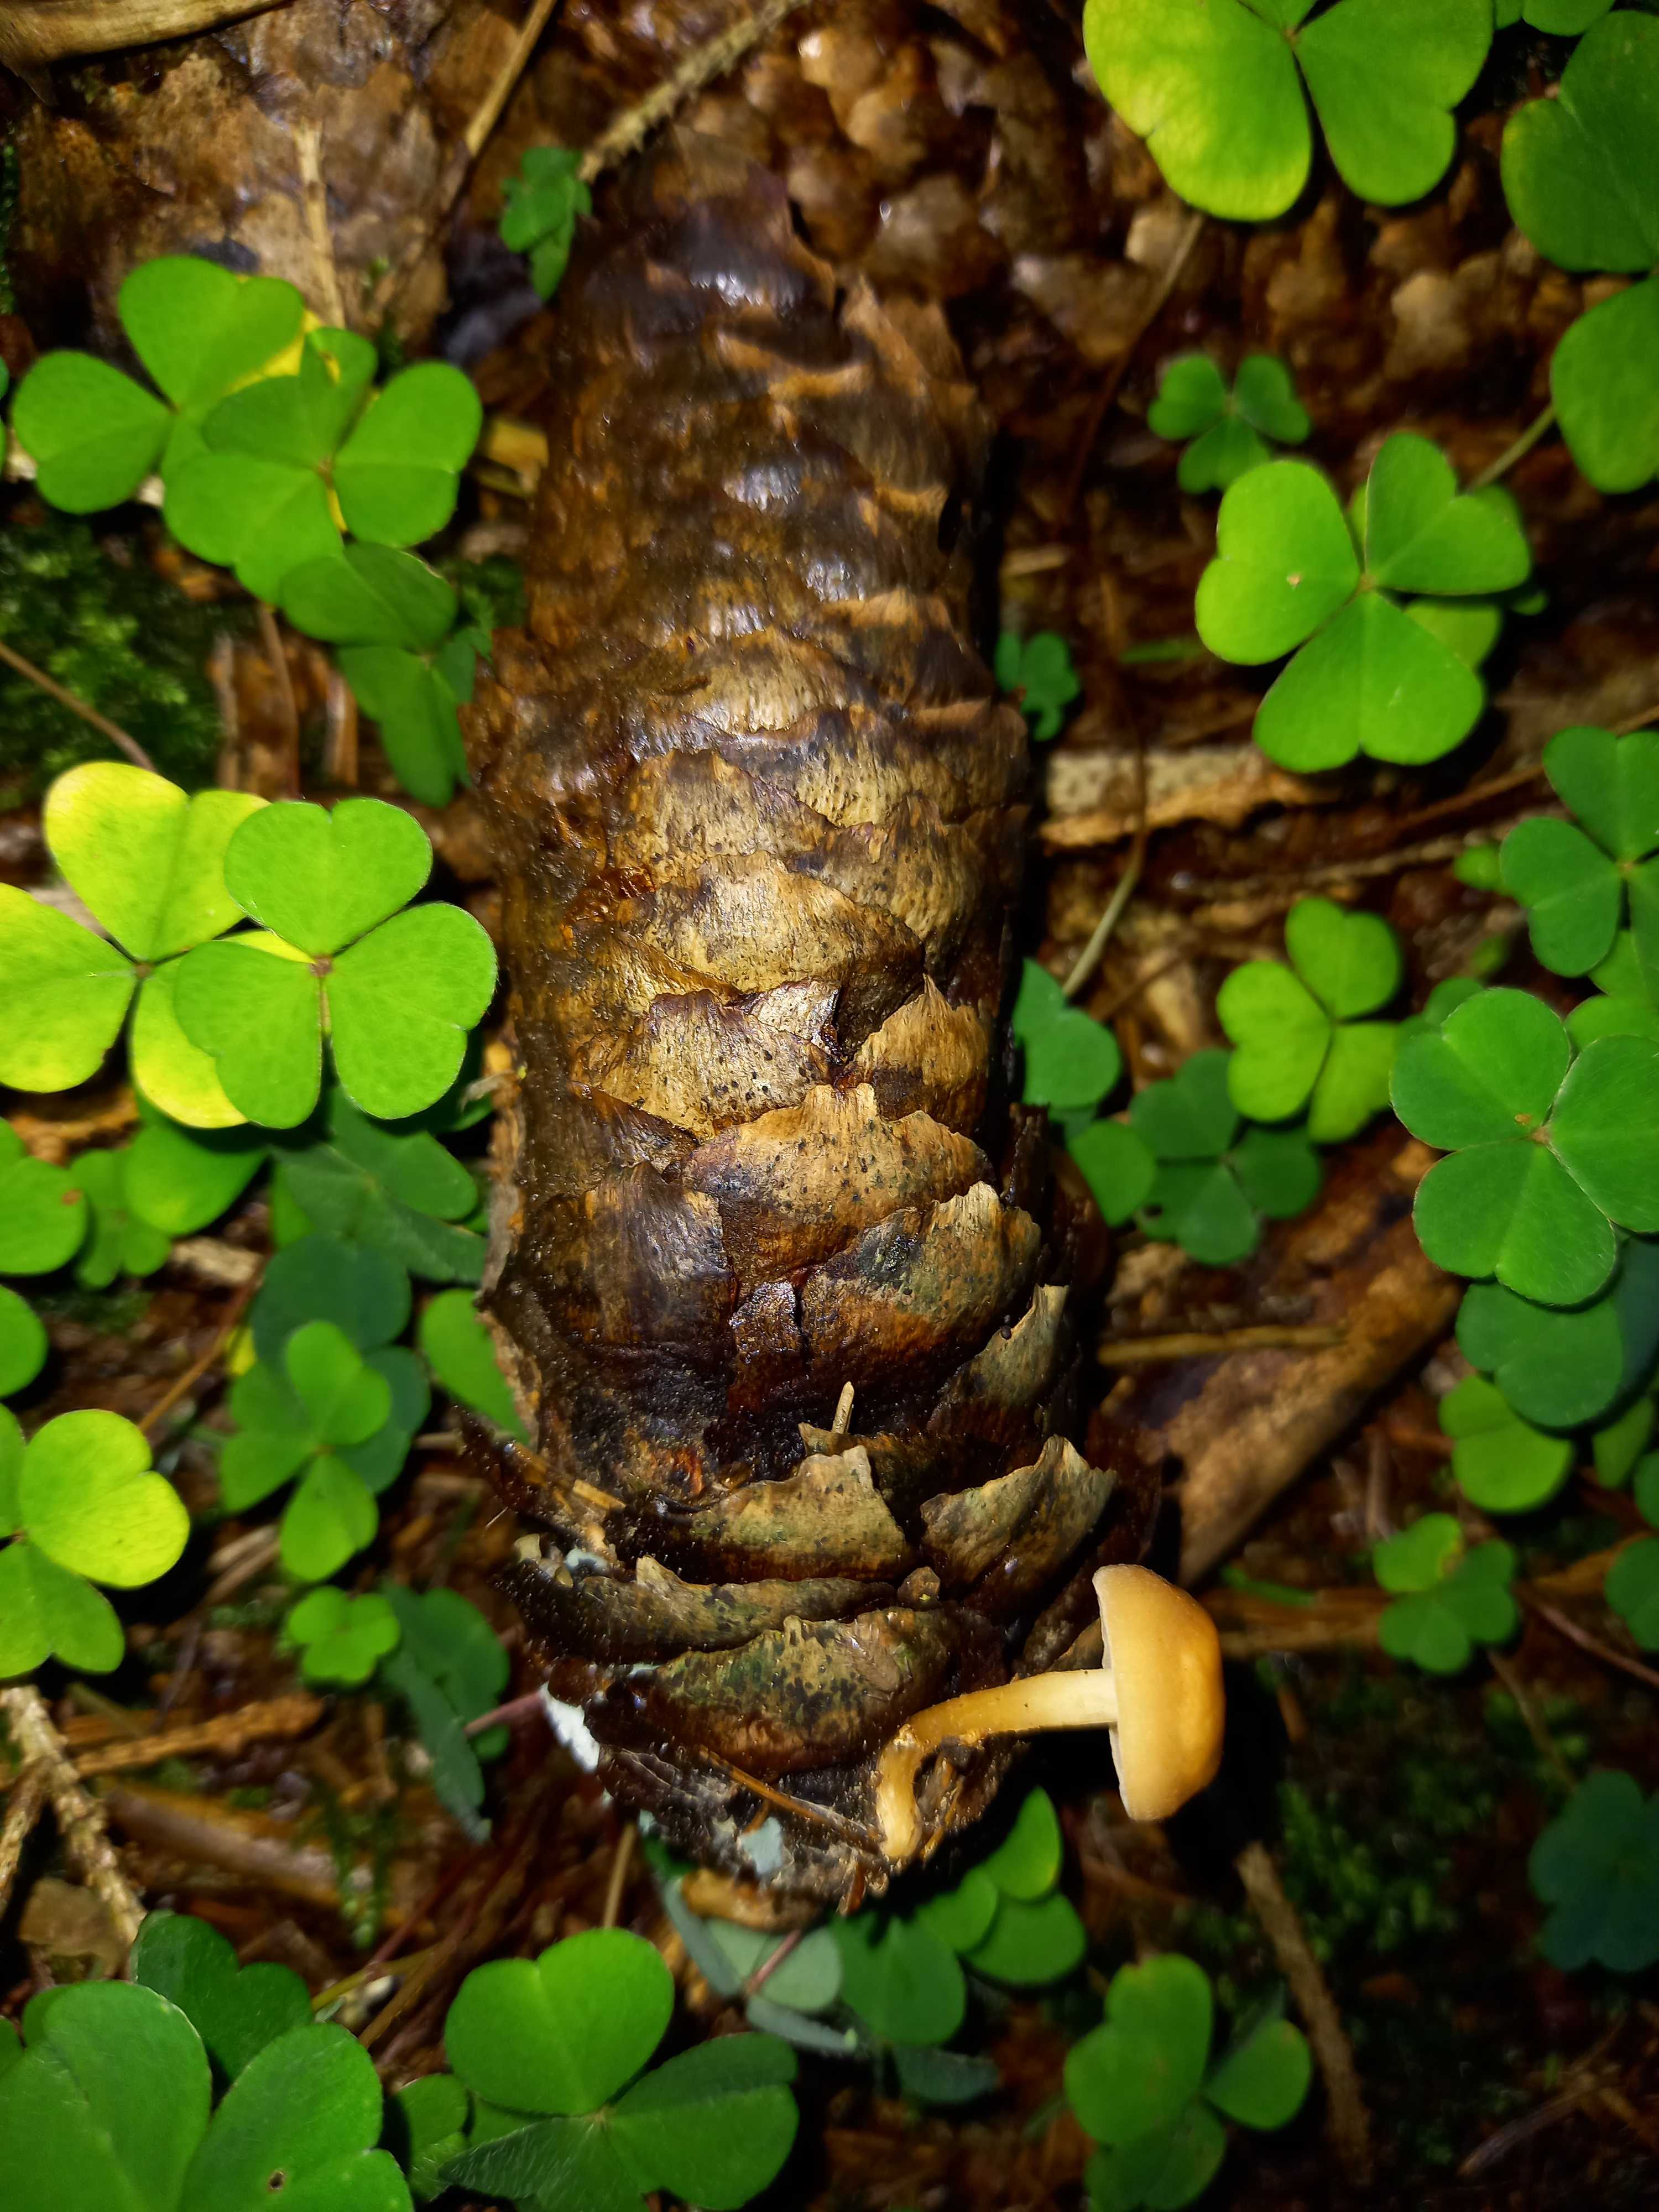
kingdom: Fungi
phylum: Basidiomycota
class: Agaricomycetes
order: Agaricales
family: Physalacriaceae
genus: Strobilurus
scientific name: Strobilurus esculentus
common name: gran-koglehat
